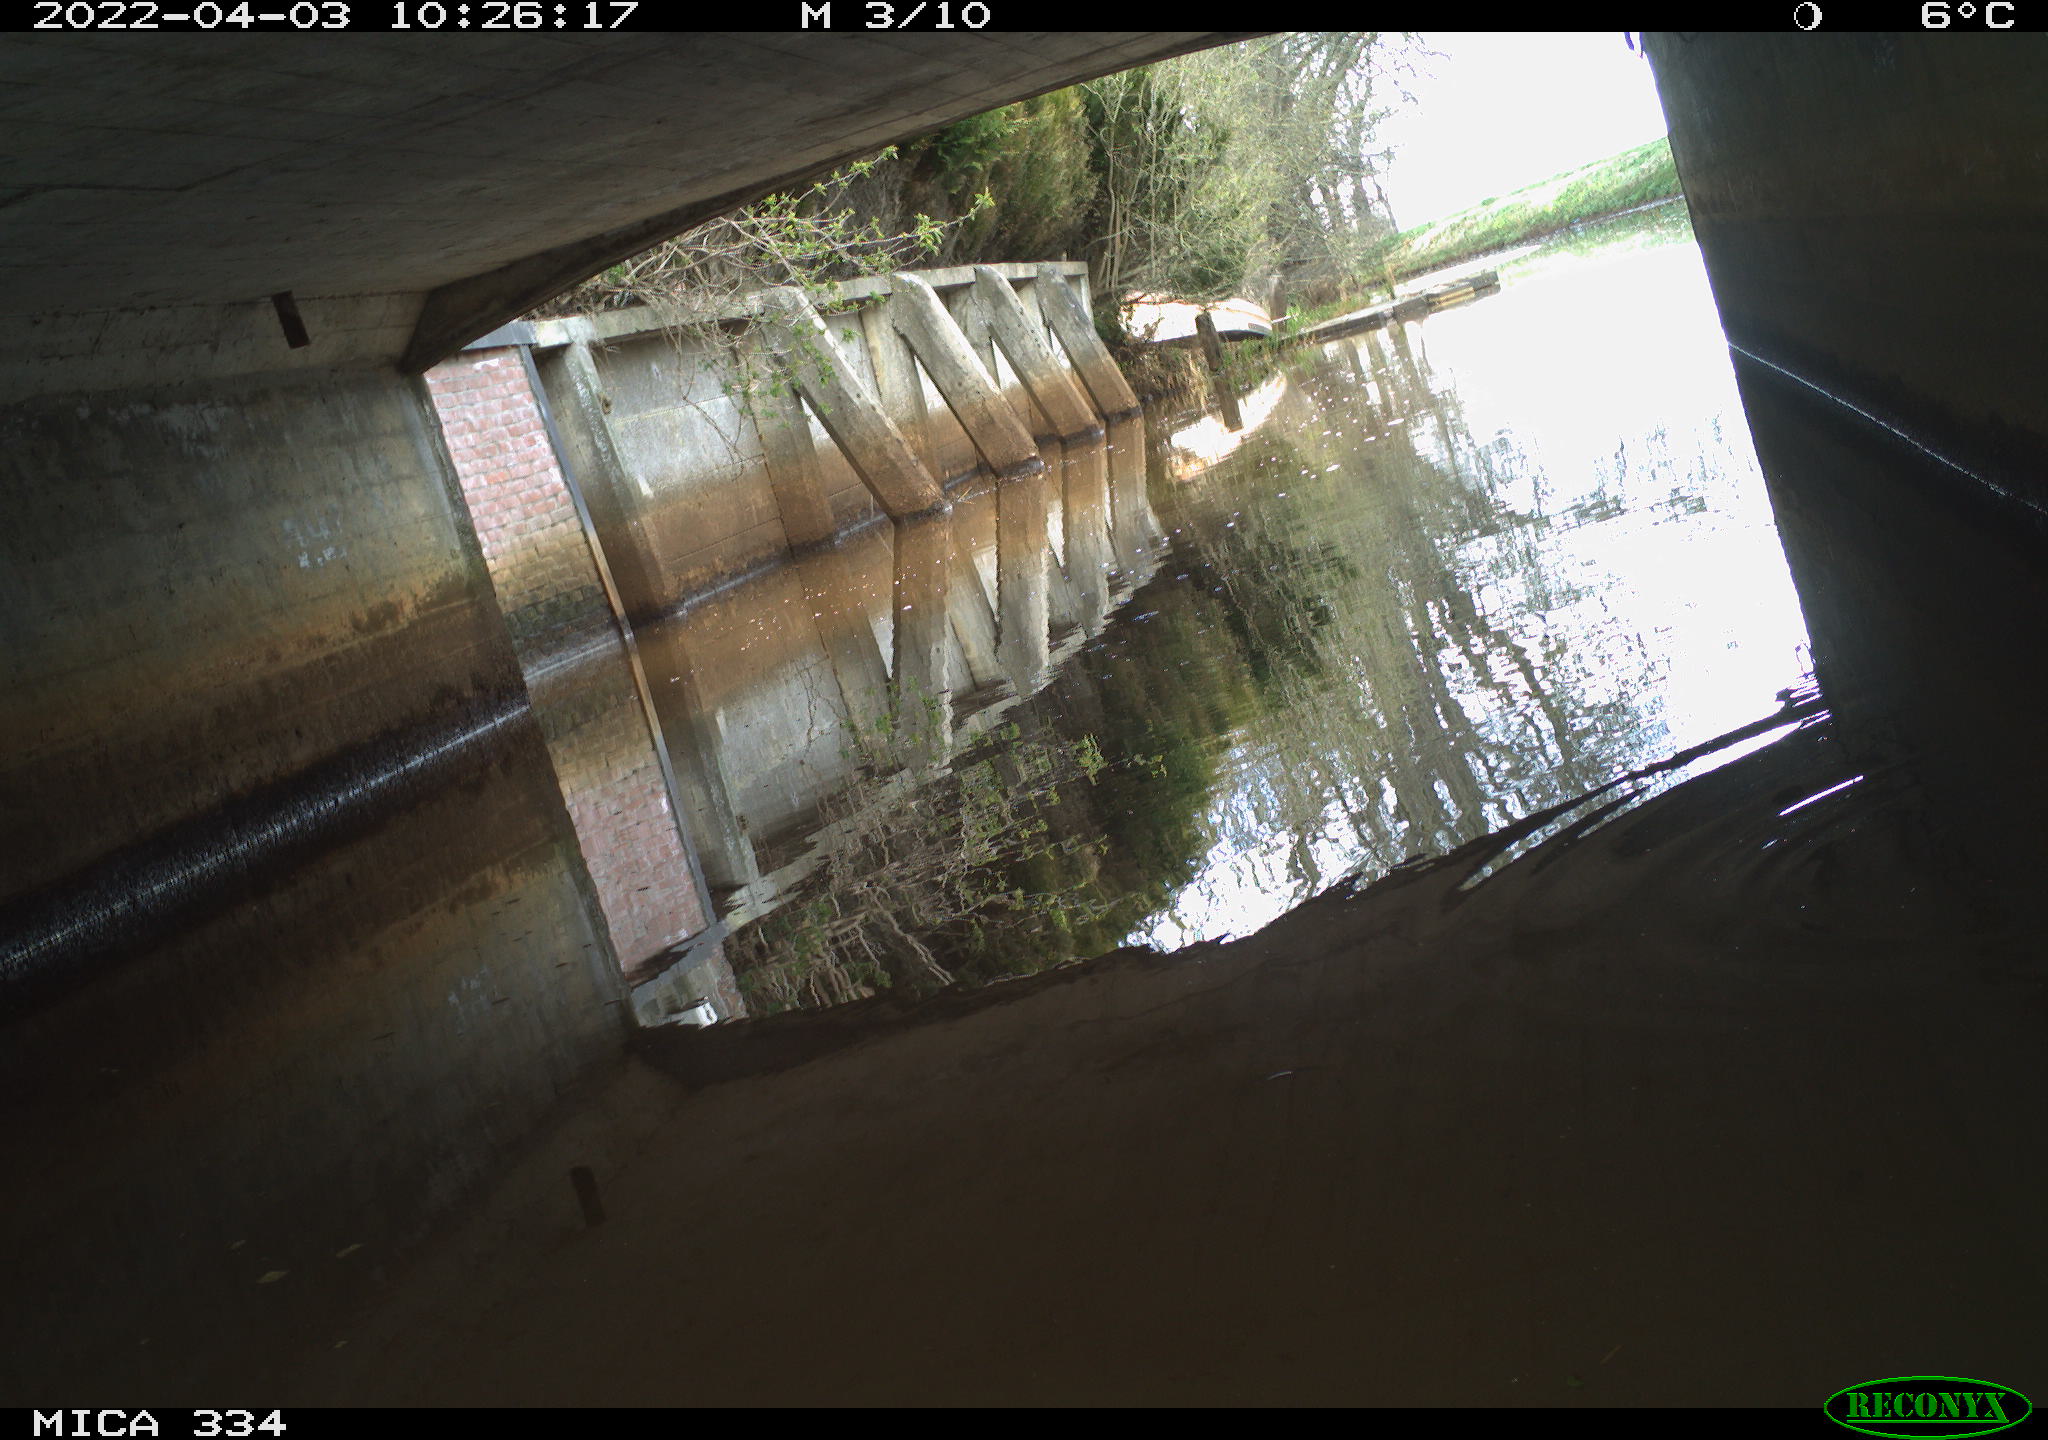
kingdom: Animalia
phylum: Chordata
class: Aves
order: Gruiformes
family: Rallidae
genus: Gallinula
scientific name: Gallinula chloropus
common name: Common moorhen
